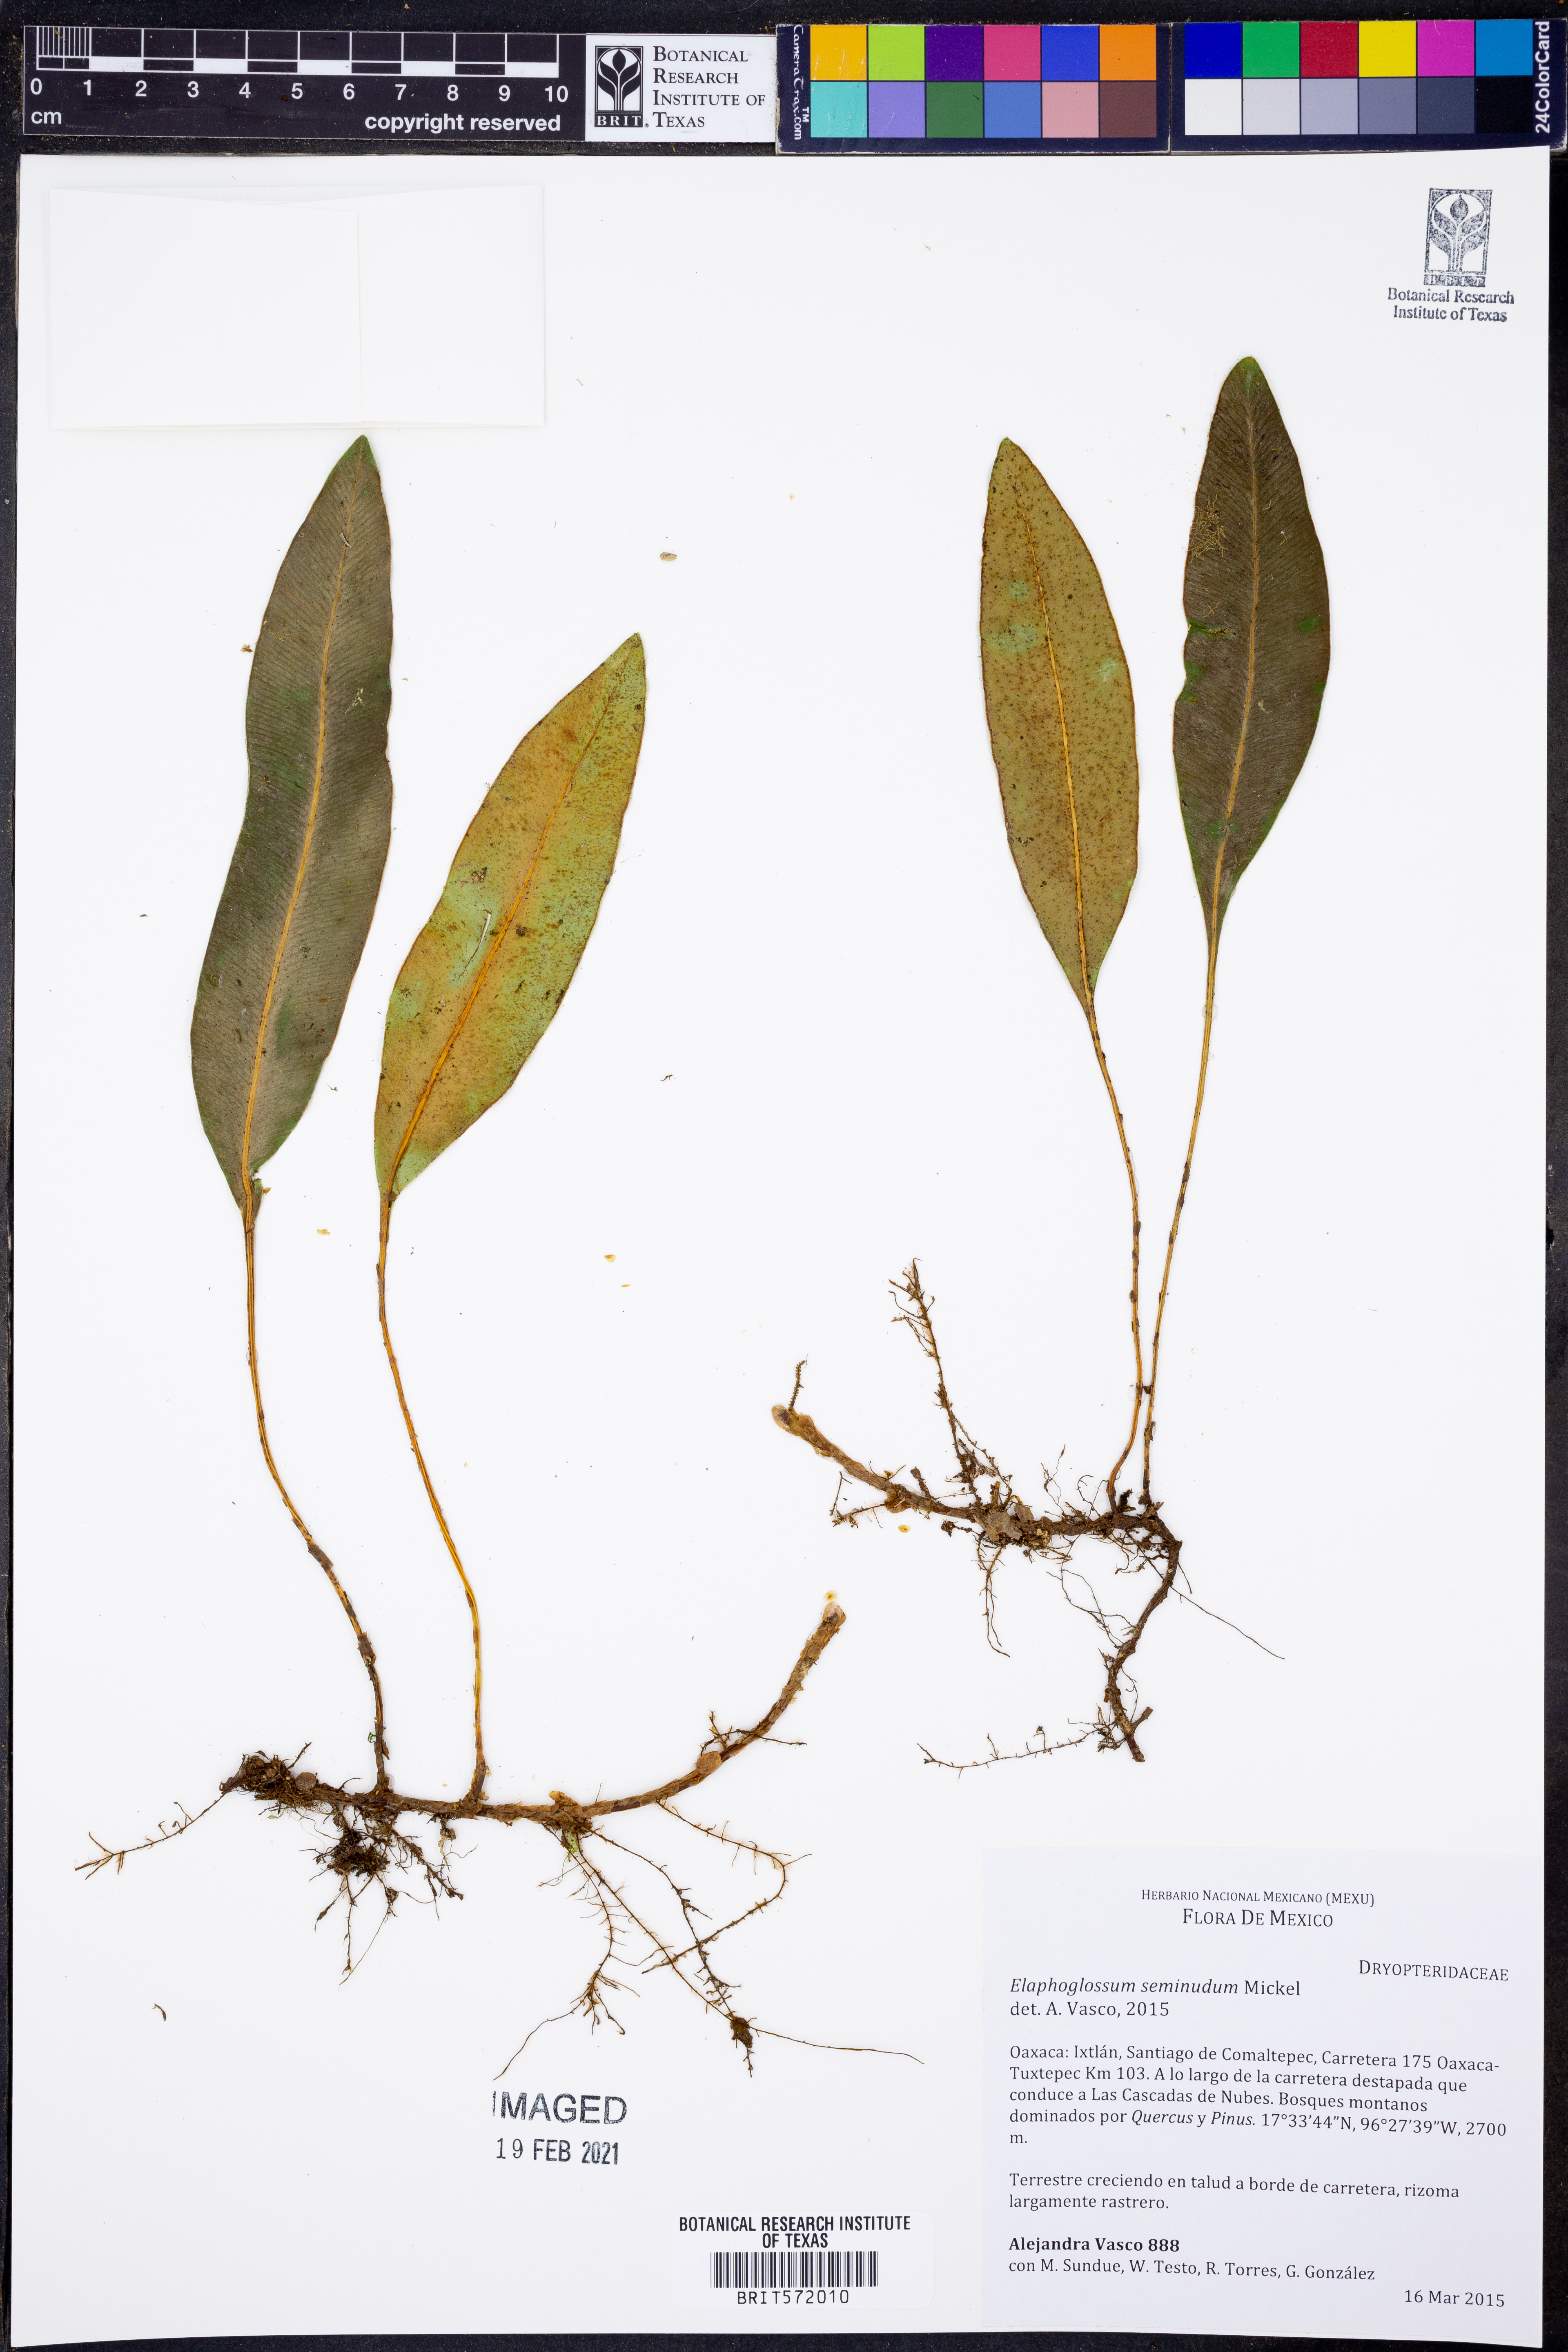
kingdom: Plantae
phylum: Tracheophyta
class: Polypodiopsida
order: Polypodiales
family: Dryopteridaceae
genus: Elaphoglossum
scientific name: Elaphoglossum seminudum
